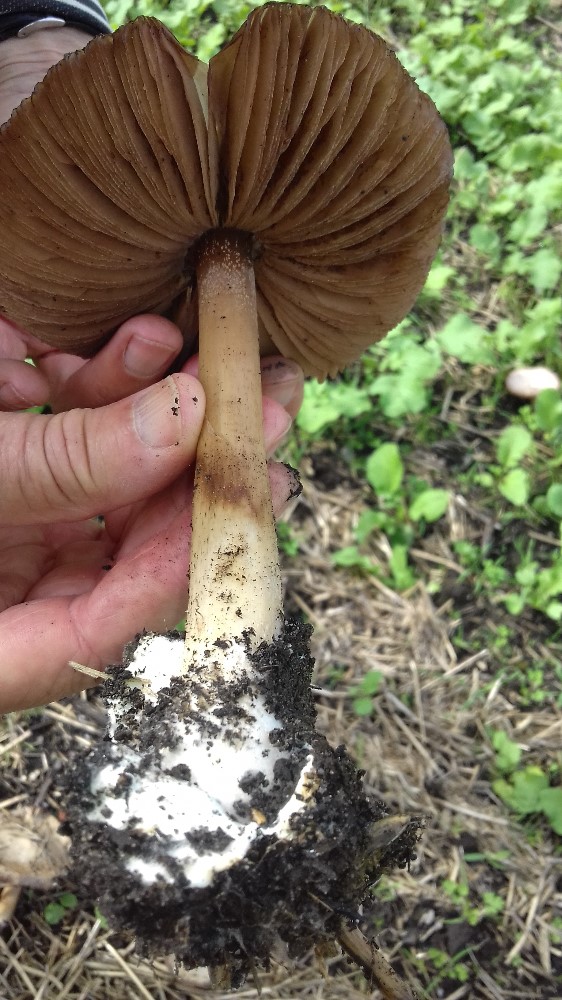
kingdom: Fungi
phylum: Basidiomycota
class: Agaricomycetes
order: Agaricales
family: Pluteaceae
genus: Volvopluteus
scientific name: Volvopluteus gloiocephalus
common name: høj posesvamp
